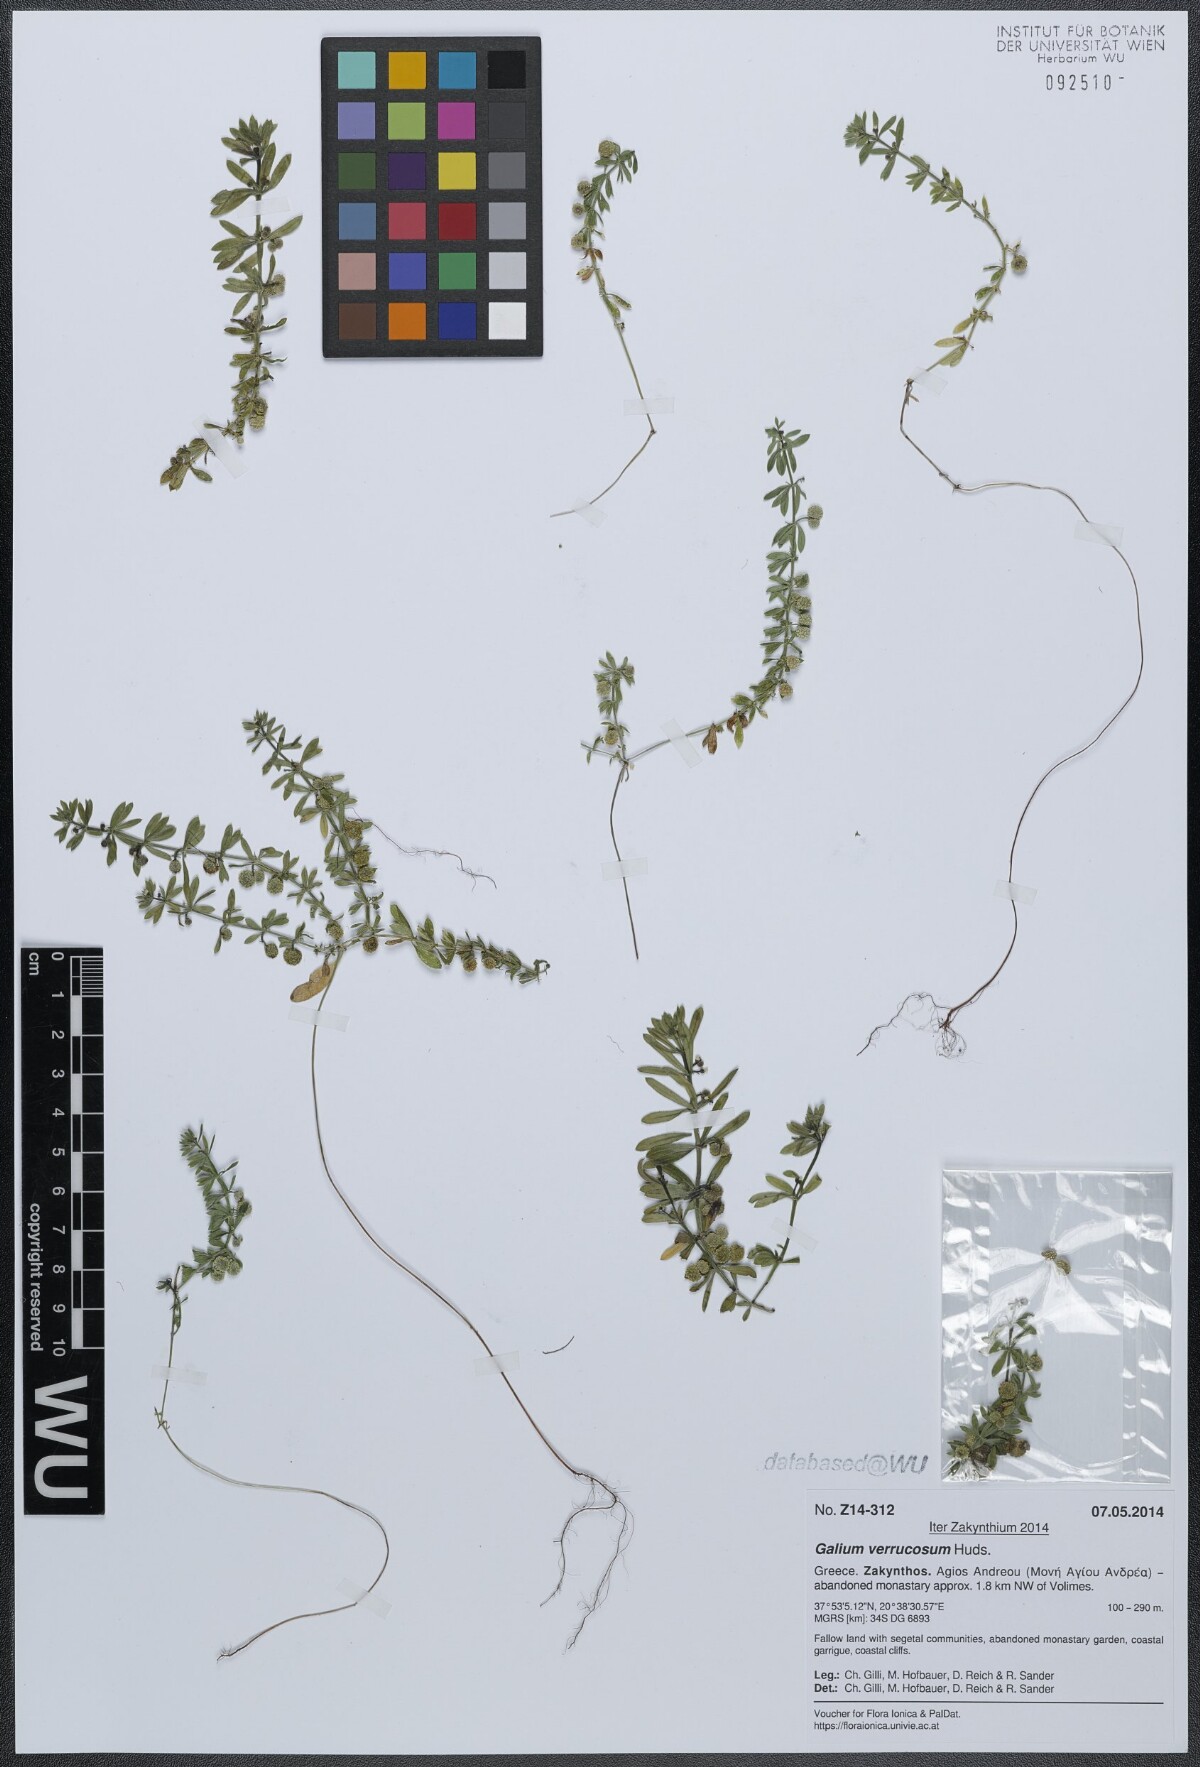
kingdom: Plantae
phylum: Tracheophyta
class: Magnoliopsida
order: Gentianales
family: Rubiaceae
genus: Galium
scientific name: Galium verrucosum
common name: Warty bedstraw
